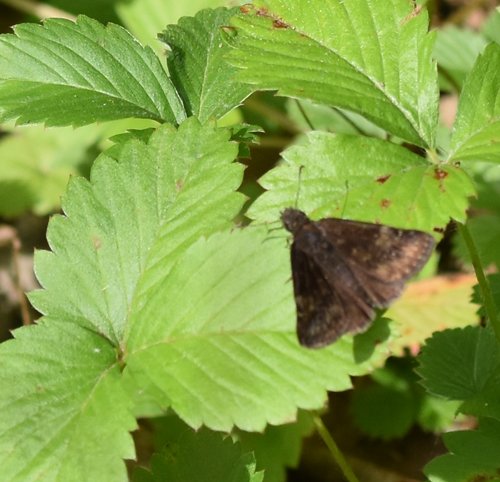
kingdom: Animalia
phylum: Arthropoda
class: Insecta
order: Lepidoptera
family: Hesperiidae
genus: Gesta
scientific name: Gesta
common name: Wild Indigo Duskywing
